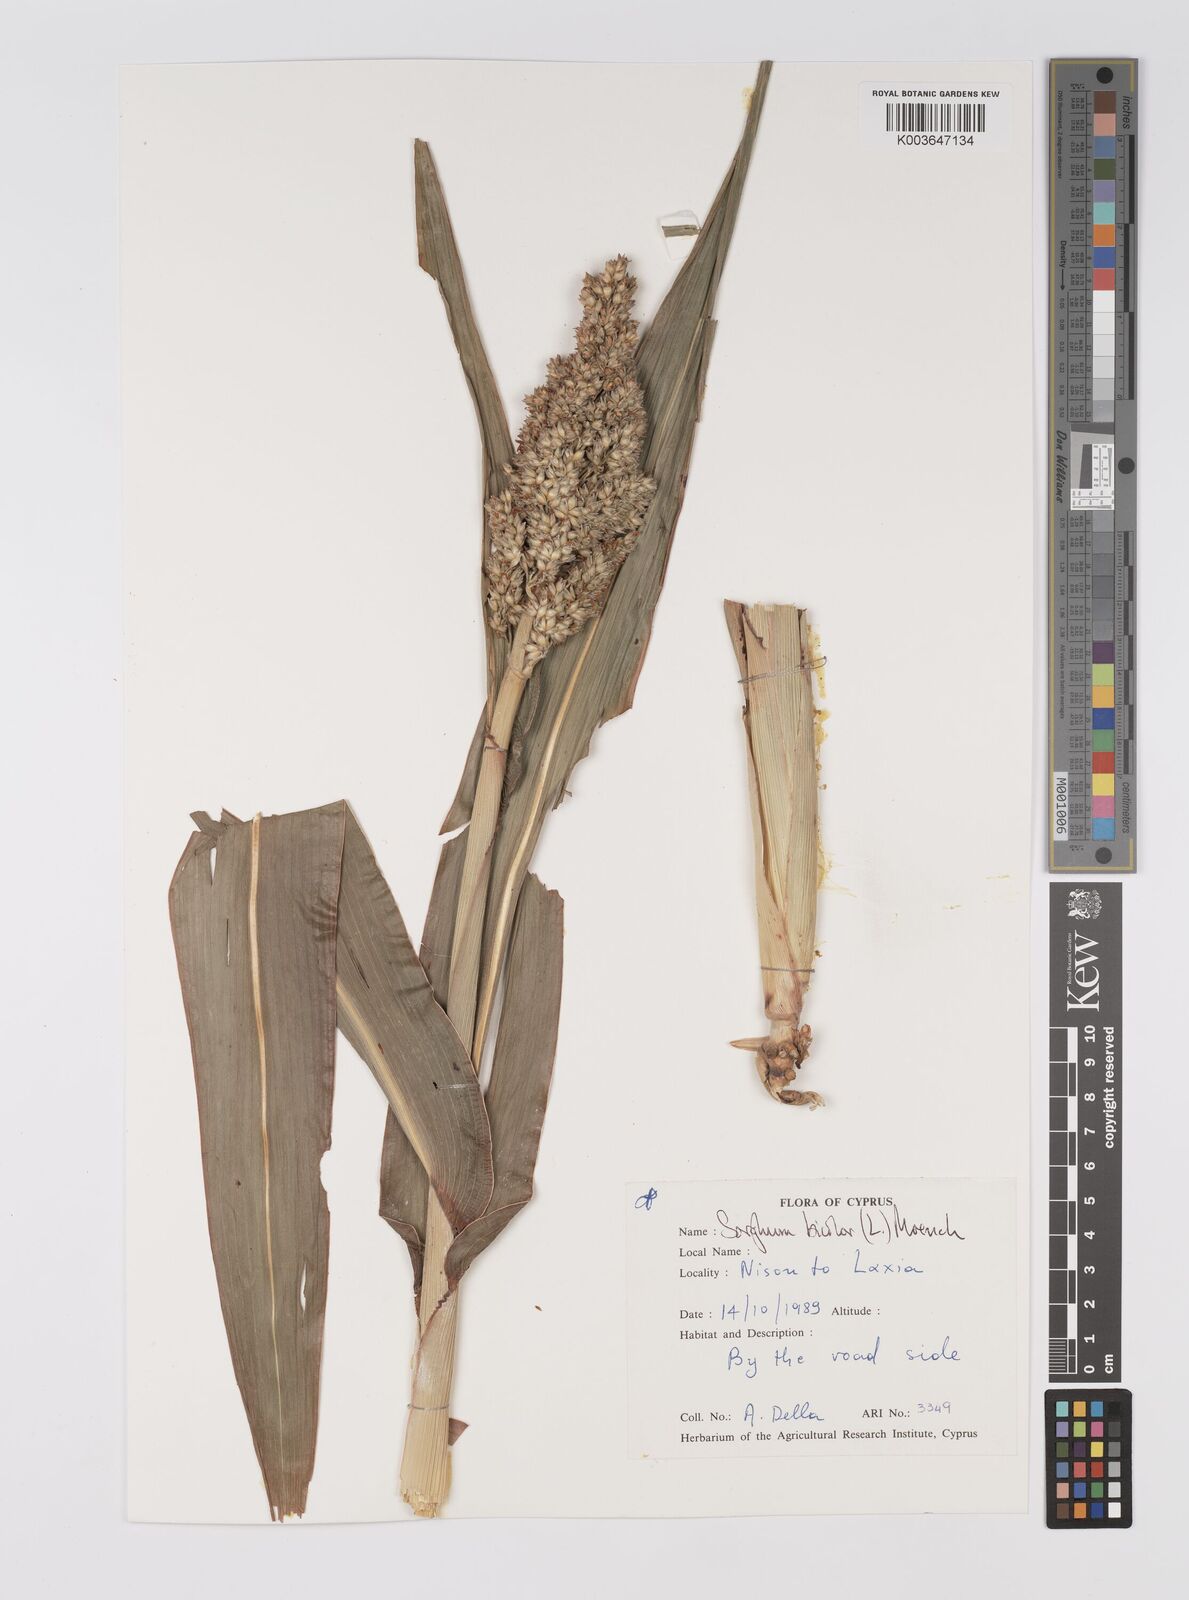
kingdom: Plantae
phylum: Tracheophyta
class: Liliopsida
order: Poales
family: Poaceae
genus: Sorghum
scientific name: Sorghum bicolor
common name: Sorghum
